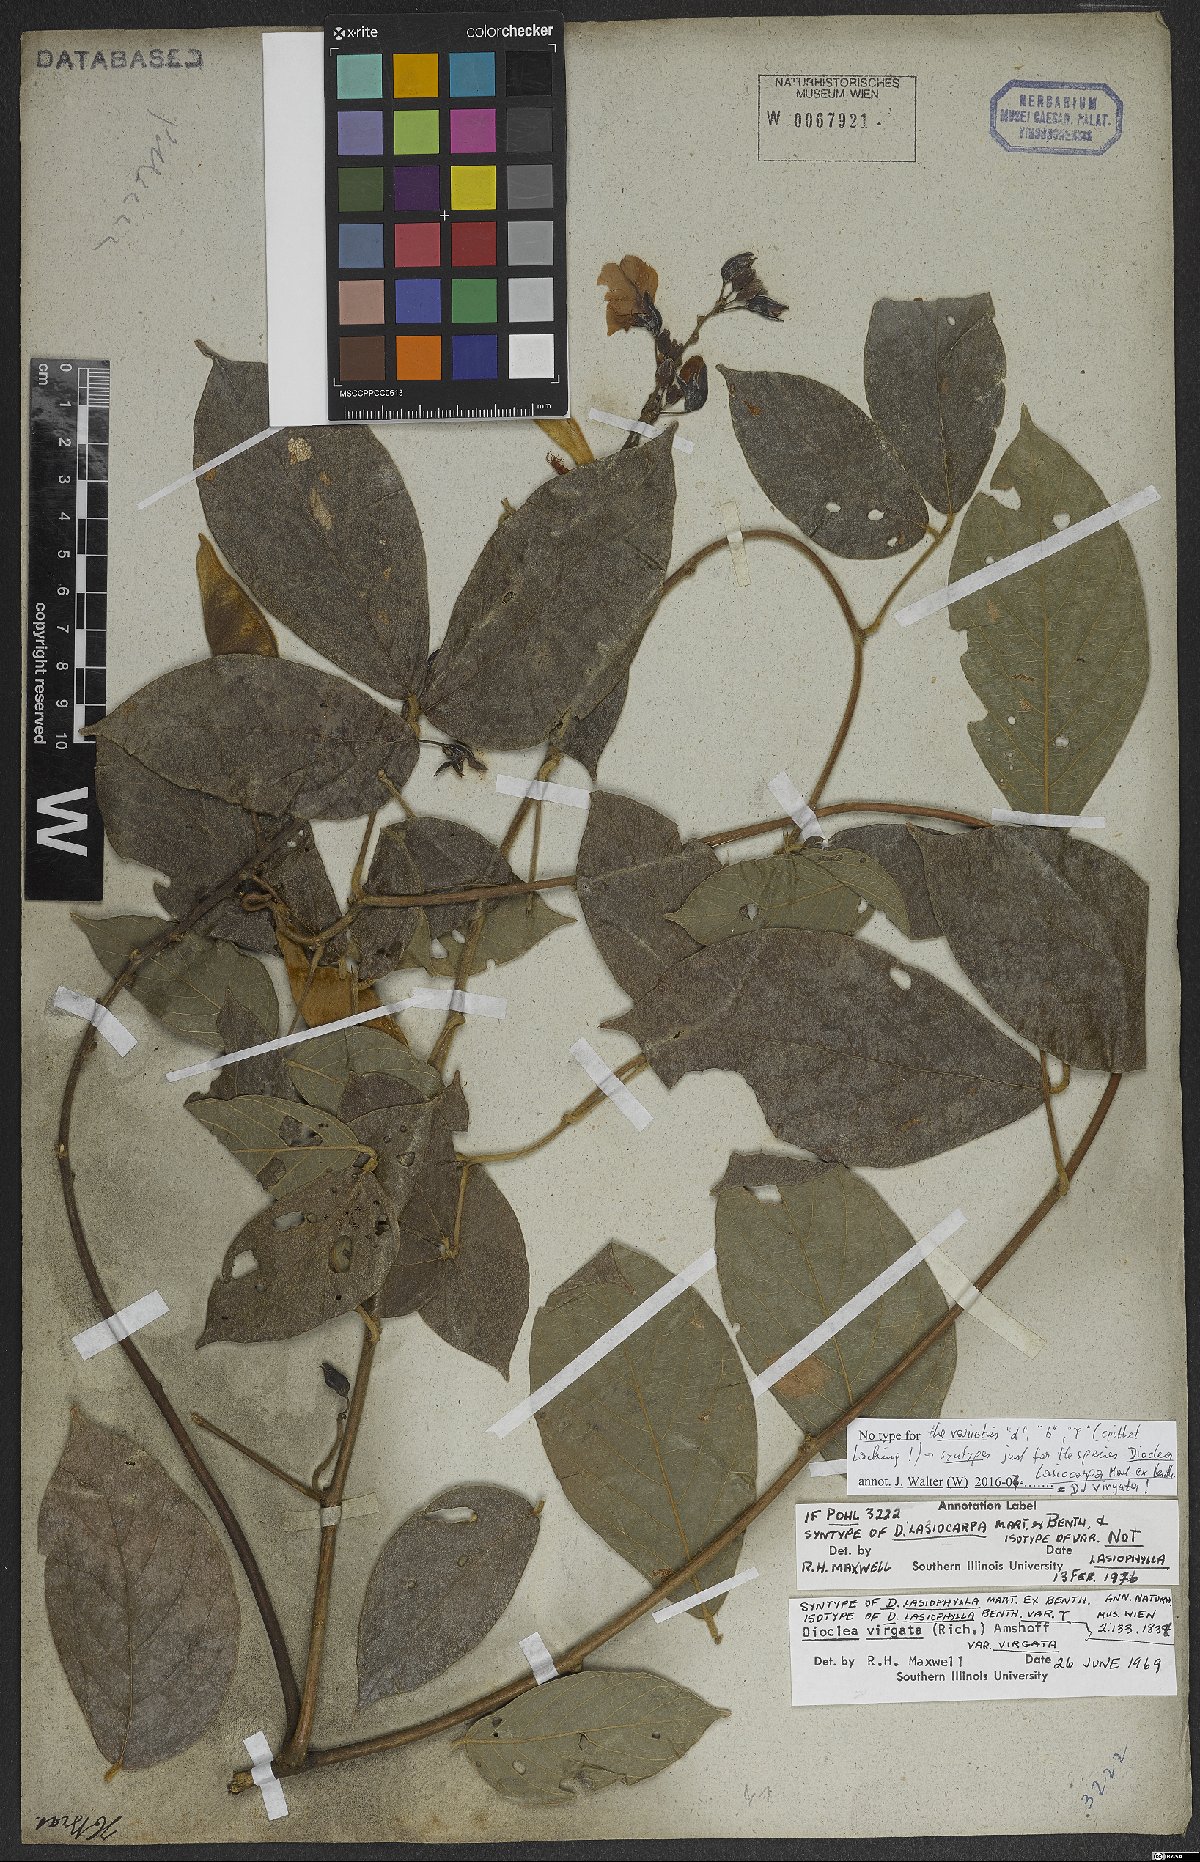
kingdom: Plantae
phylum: Tracheophyta
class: Magnoliopsida
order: Fabales
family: Fabaceae
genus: Dioclea
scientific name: Dioclea virgata
